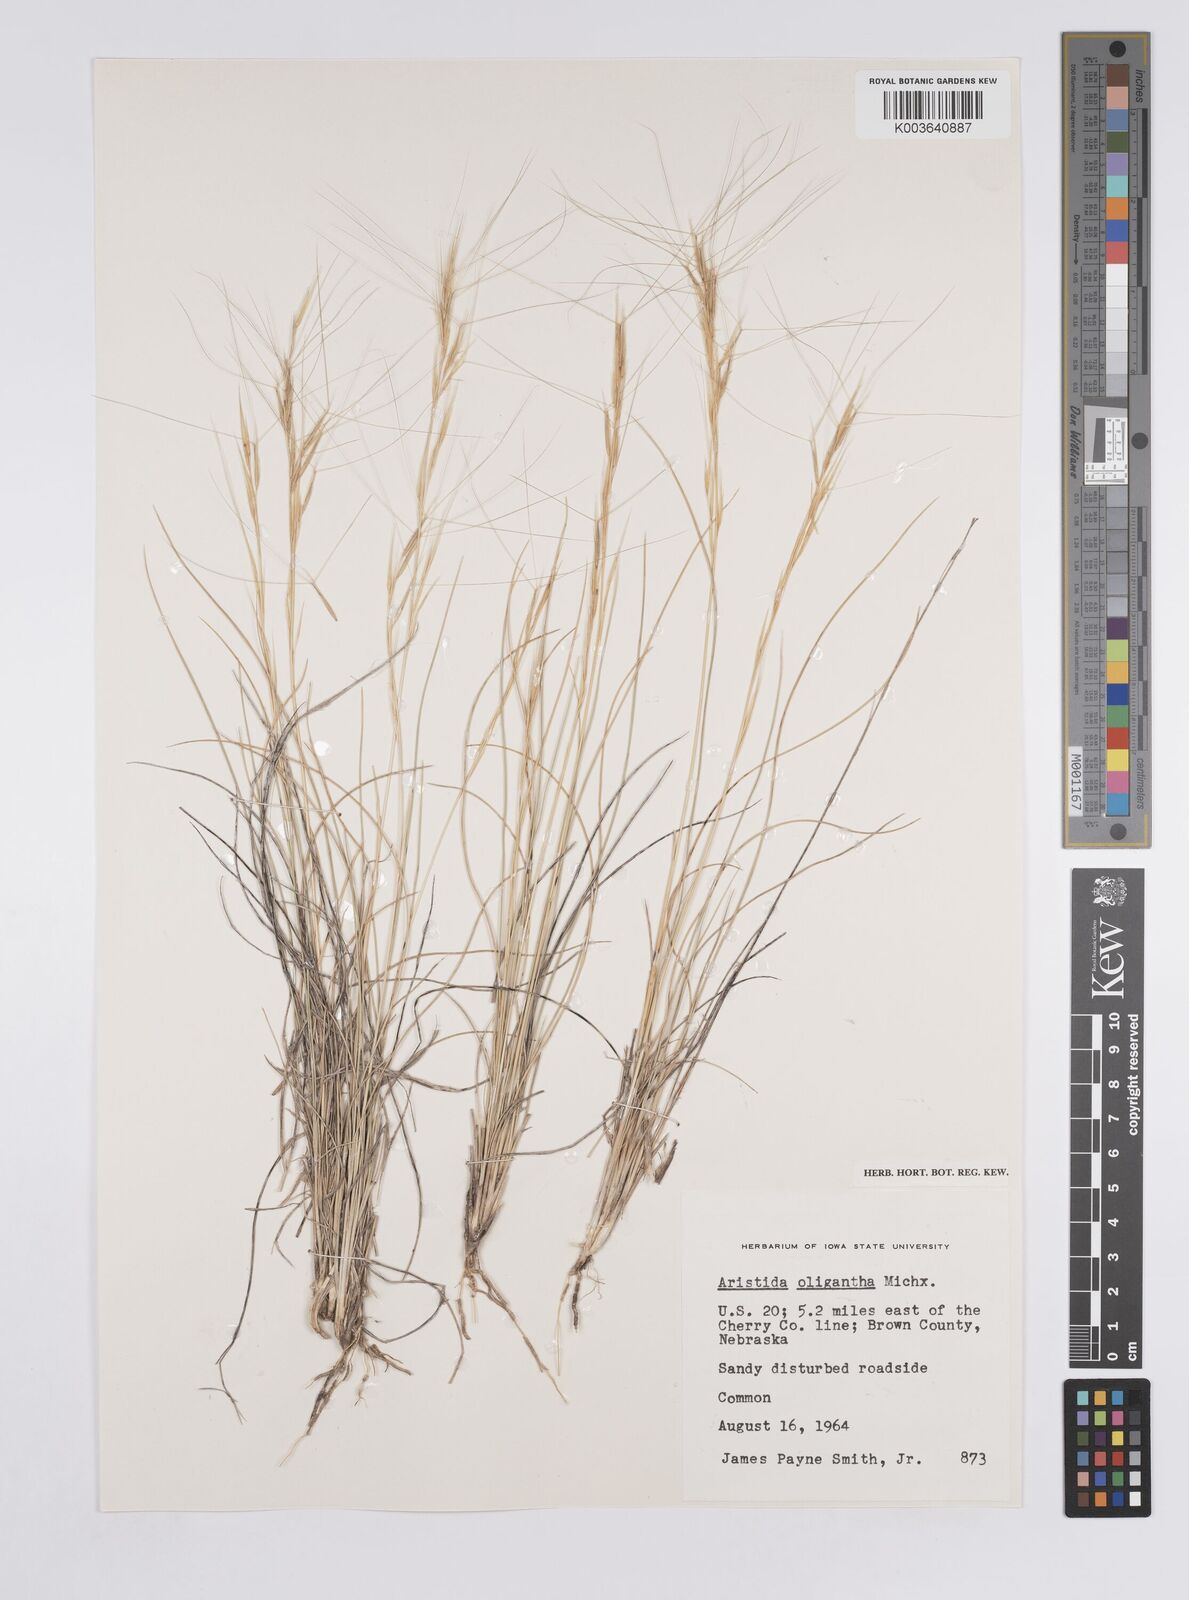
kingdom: Plantae
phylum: Tracheophyta
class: Liliopsida
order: Poales
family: Poaceae
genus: Aristida
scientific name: Aristida purpurea
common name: Purple threeawn
